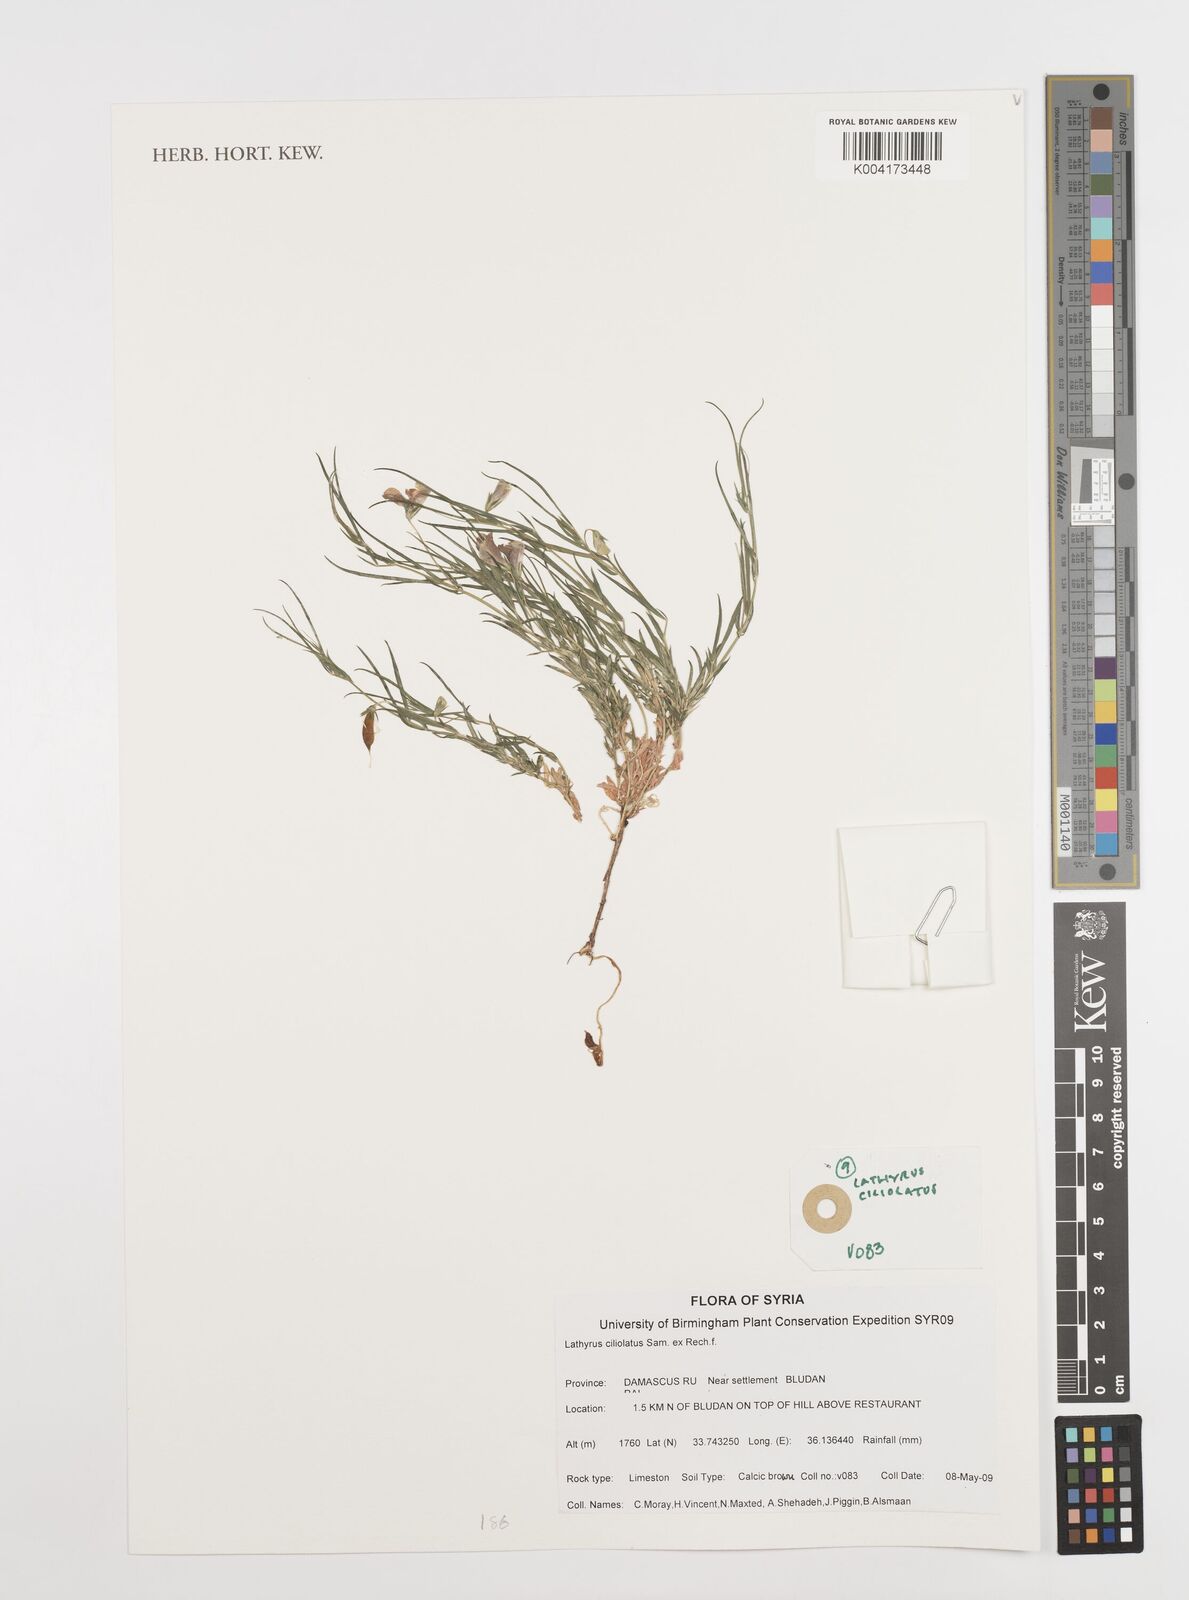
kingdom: Plantae
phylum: Tracheophyta
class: Magnoliopsida
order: Fabales
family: Fabaceae
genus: Lathyrus
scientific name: Lathyrus ciliolatus
